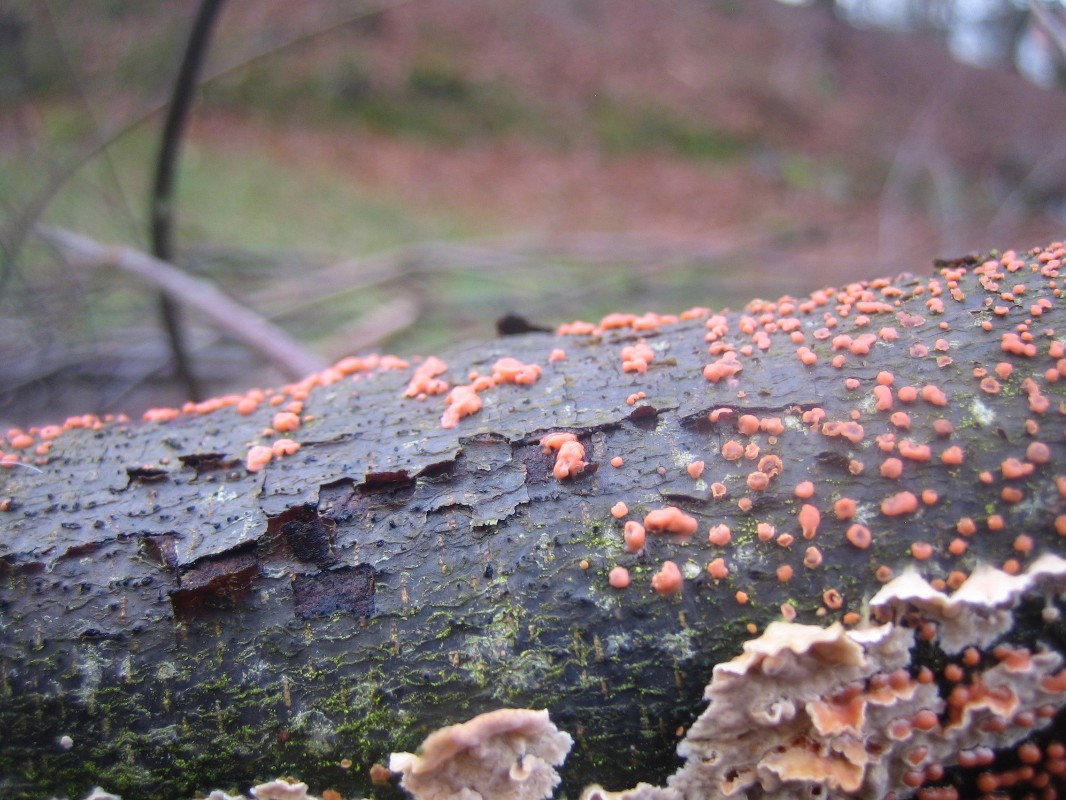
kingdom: Fungi
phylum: Ascomycota
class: Sordariomycetes
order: Hypocreales
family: Nectriaceae
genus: Nectria
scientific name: Nectria cinnabarina
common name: almindelig cinnobersvamp
